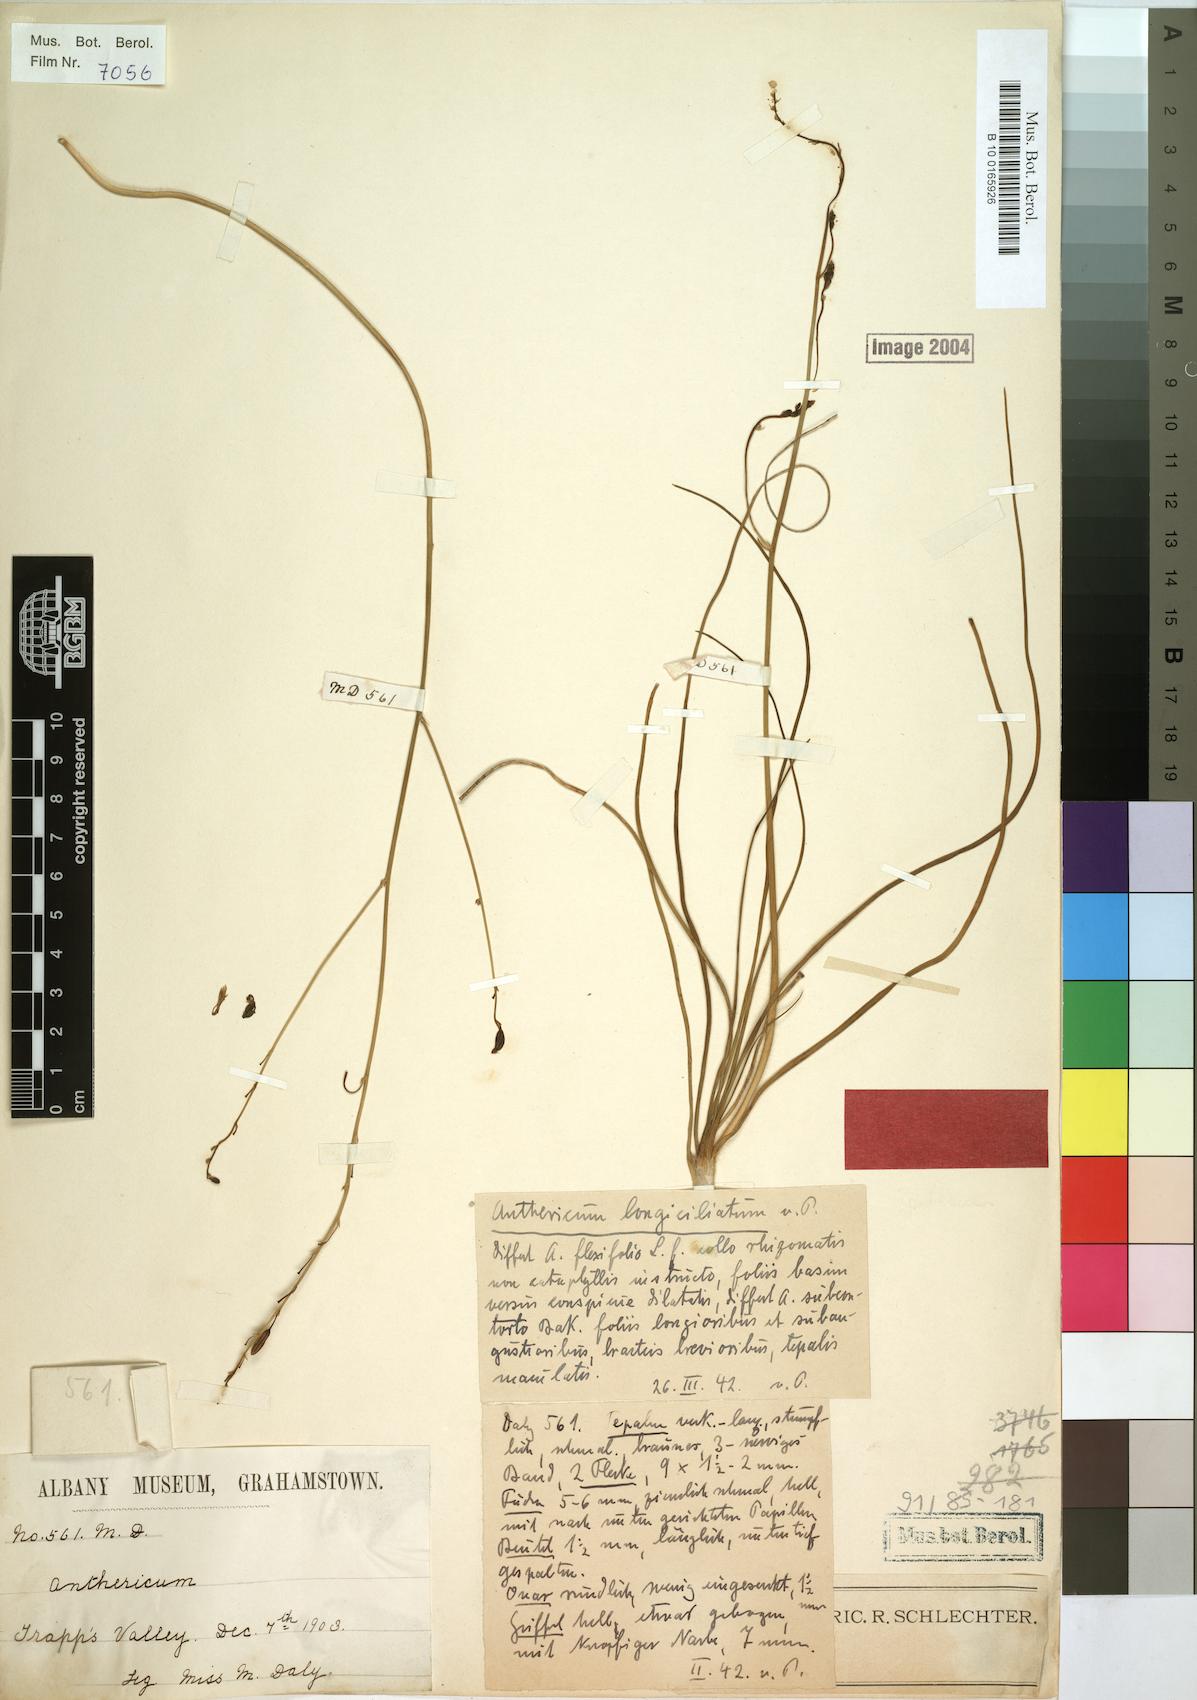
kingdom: Plantae
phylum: Tracheophyta
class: Liliopsida
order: Asparagales
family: Asphodelaceae
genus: Trachyandra
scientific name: Trachyandra affinis
